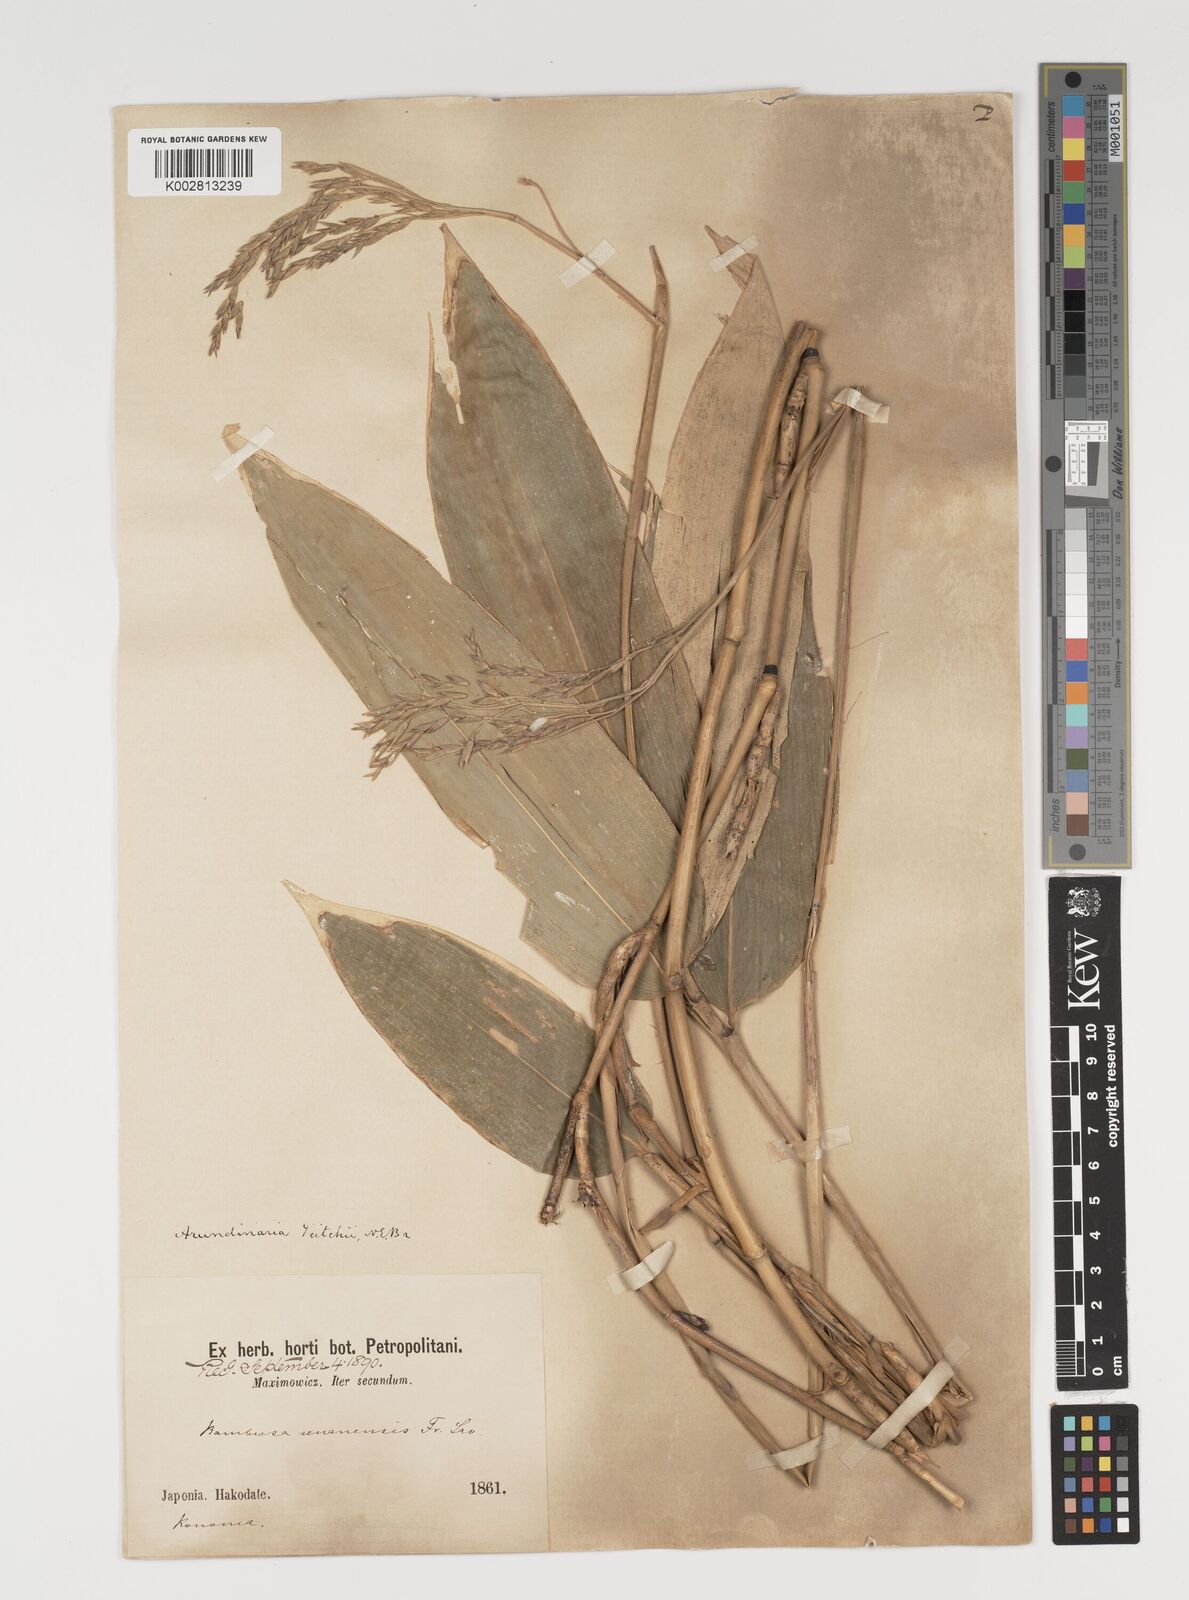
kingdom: Plantae
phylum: Tracheophyta
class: Liliopsida
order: Poales
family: Poaceae
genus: Sasa
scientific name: Sasa veitchii
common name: Veitch's bamboo
